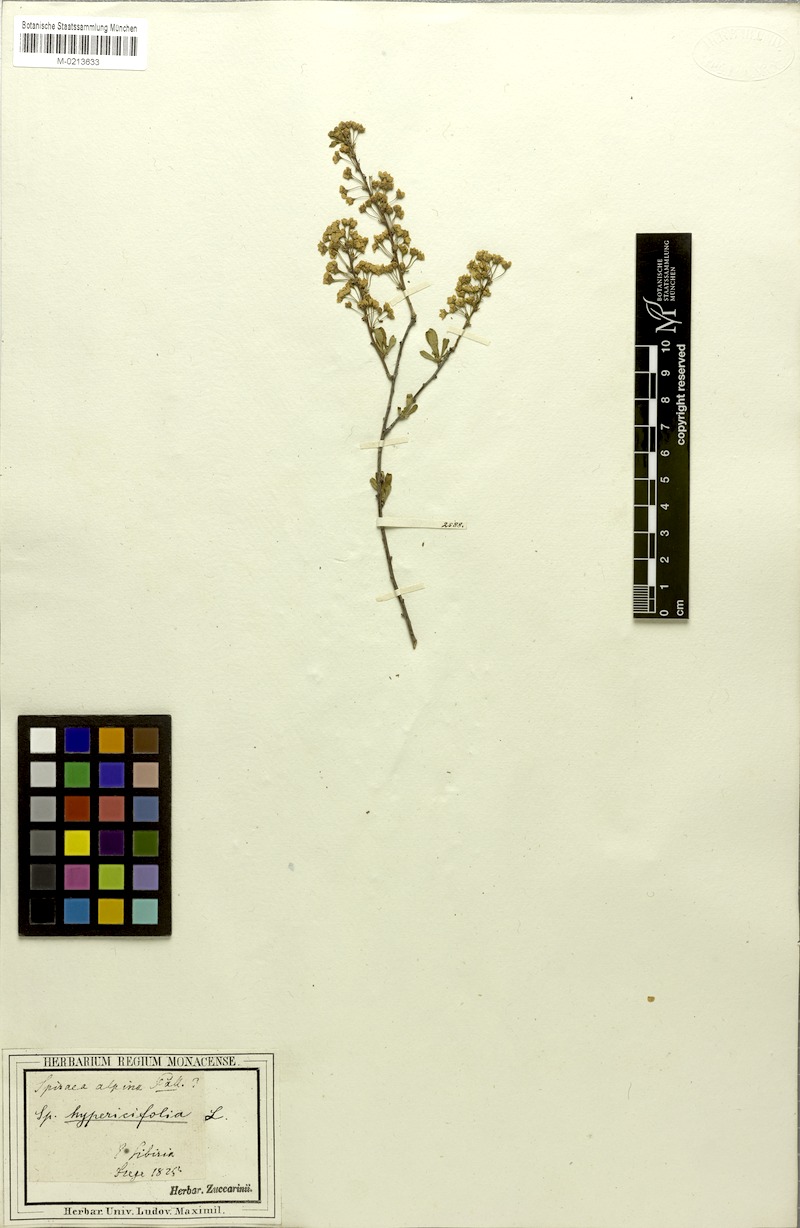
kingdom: Plantae
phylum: Tracheophyta
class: Magnoliopsida
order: Rosales
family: Rosaceae
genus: Spiraea
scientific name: Spiraea hypericifolia
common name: Iberian spirea
